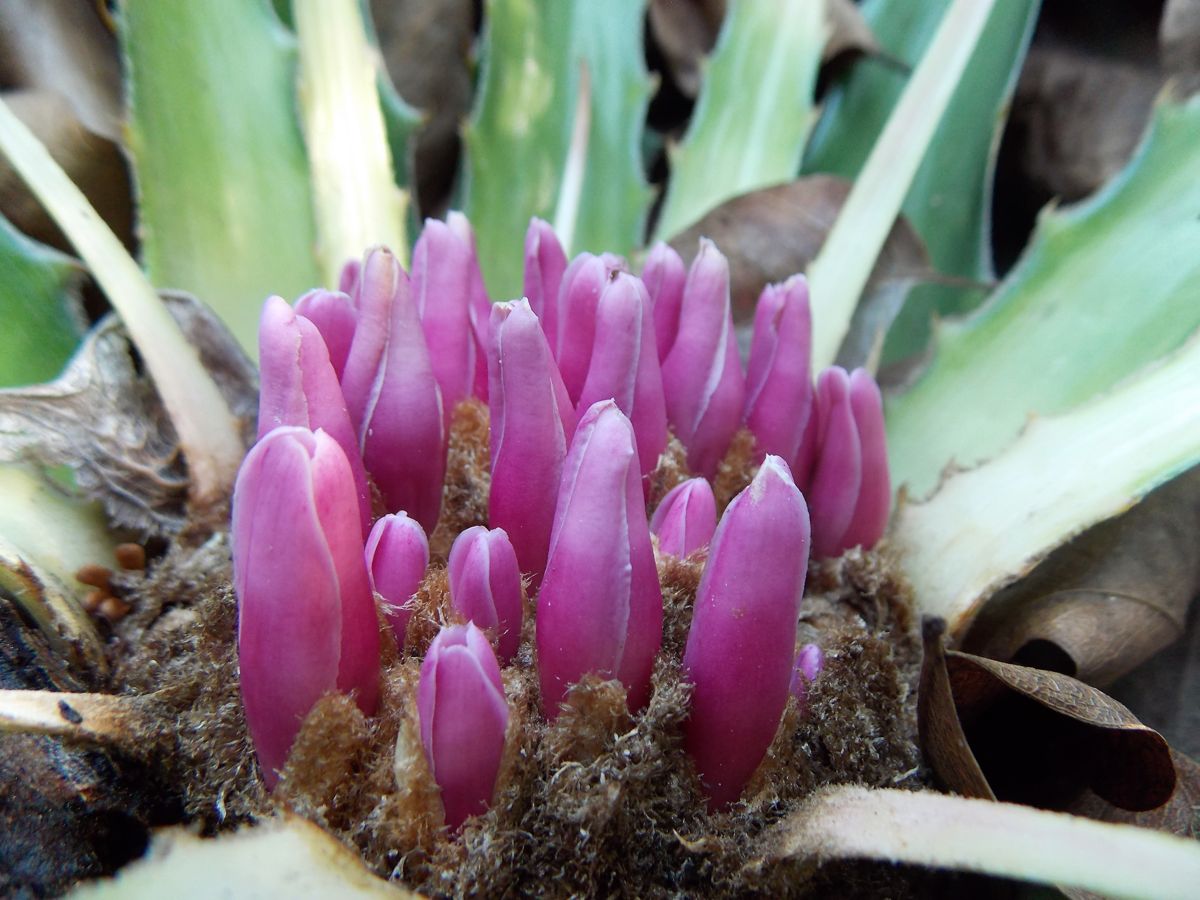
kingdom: Plantae
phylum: Tracheophyta
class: Liliopsida
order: Poales
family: Bromeliaceae
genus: Bromelia
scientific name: Bromelia karatas
